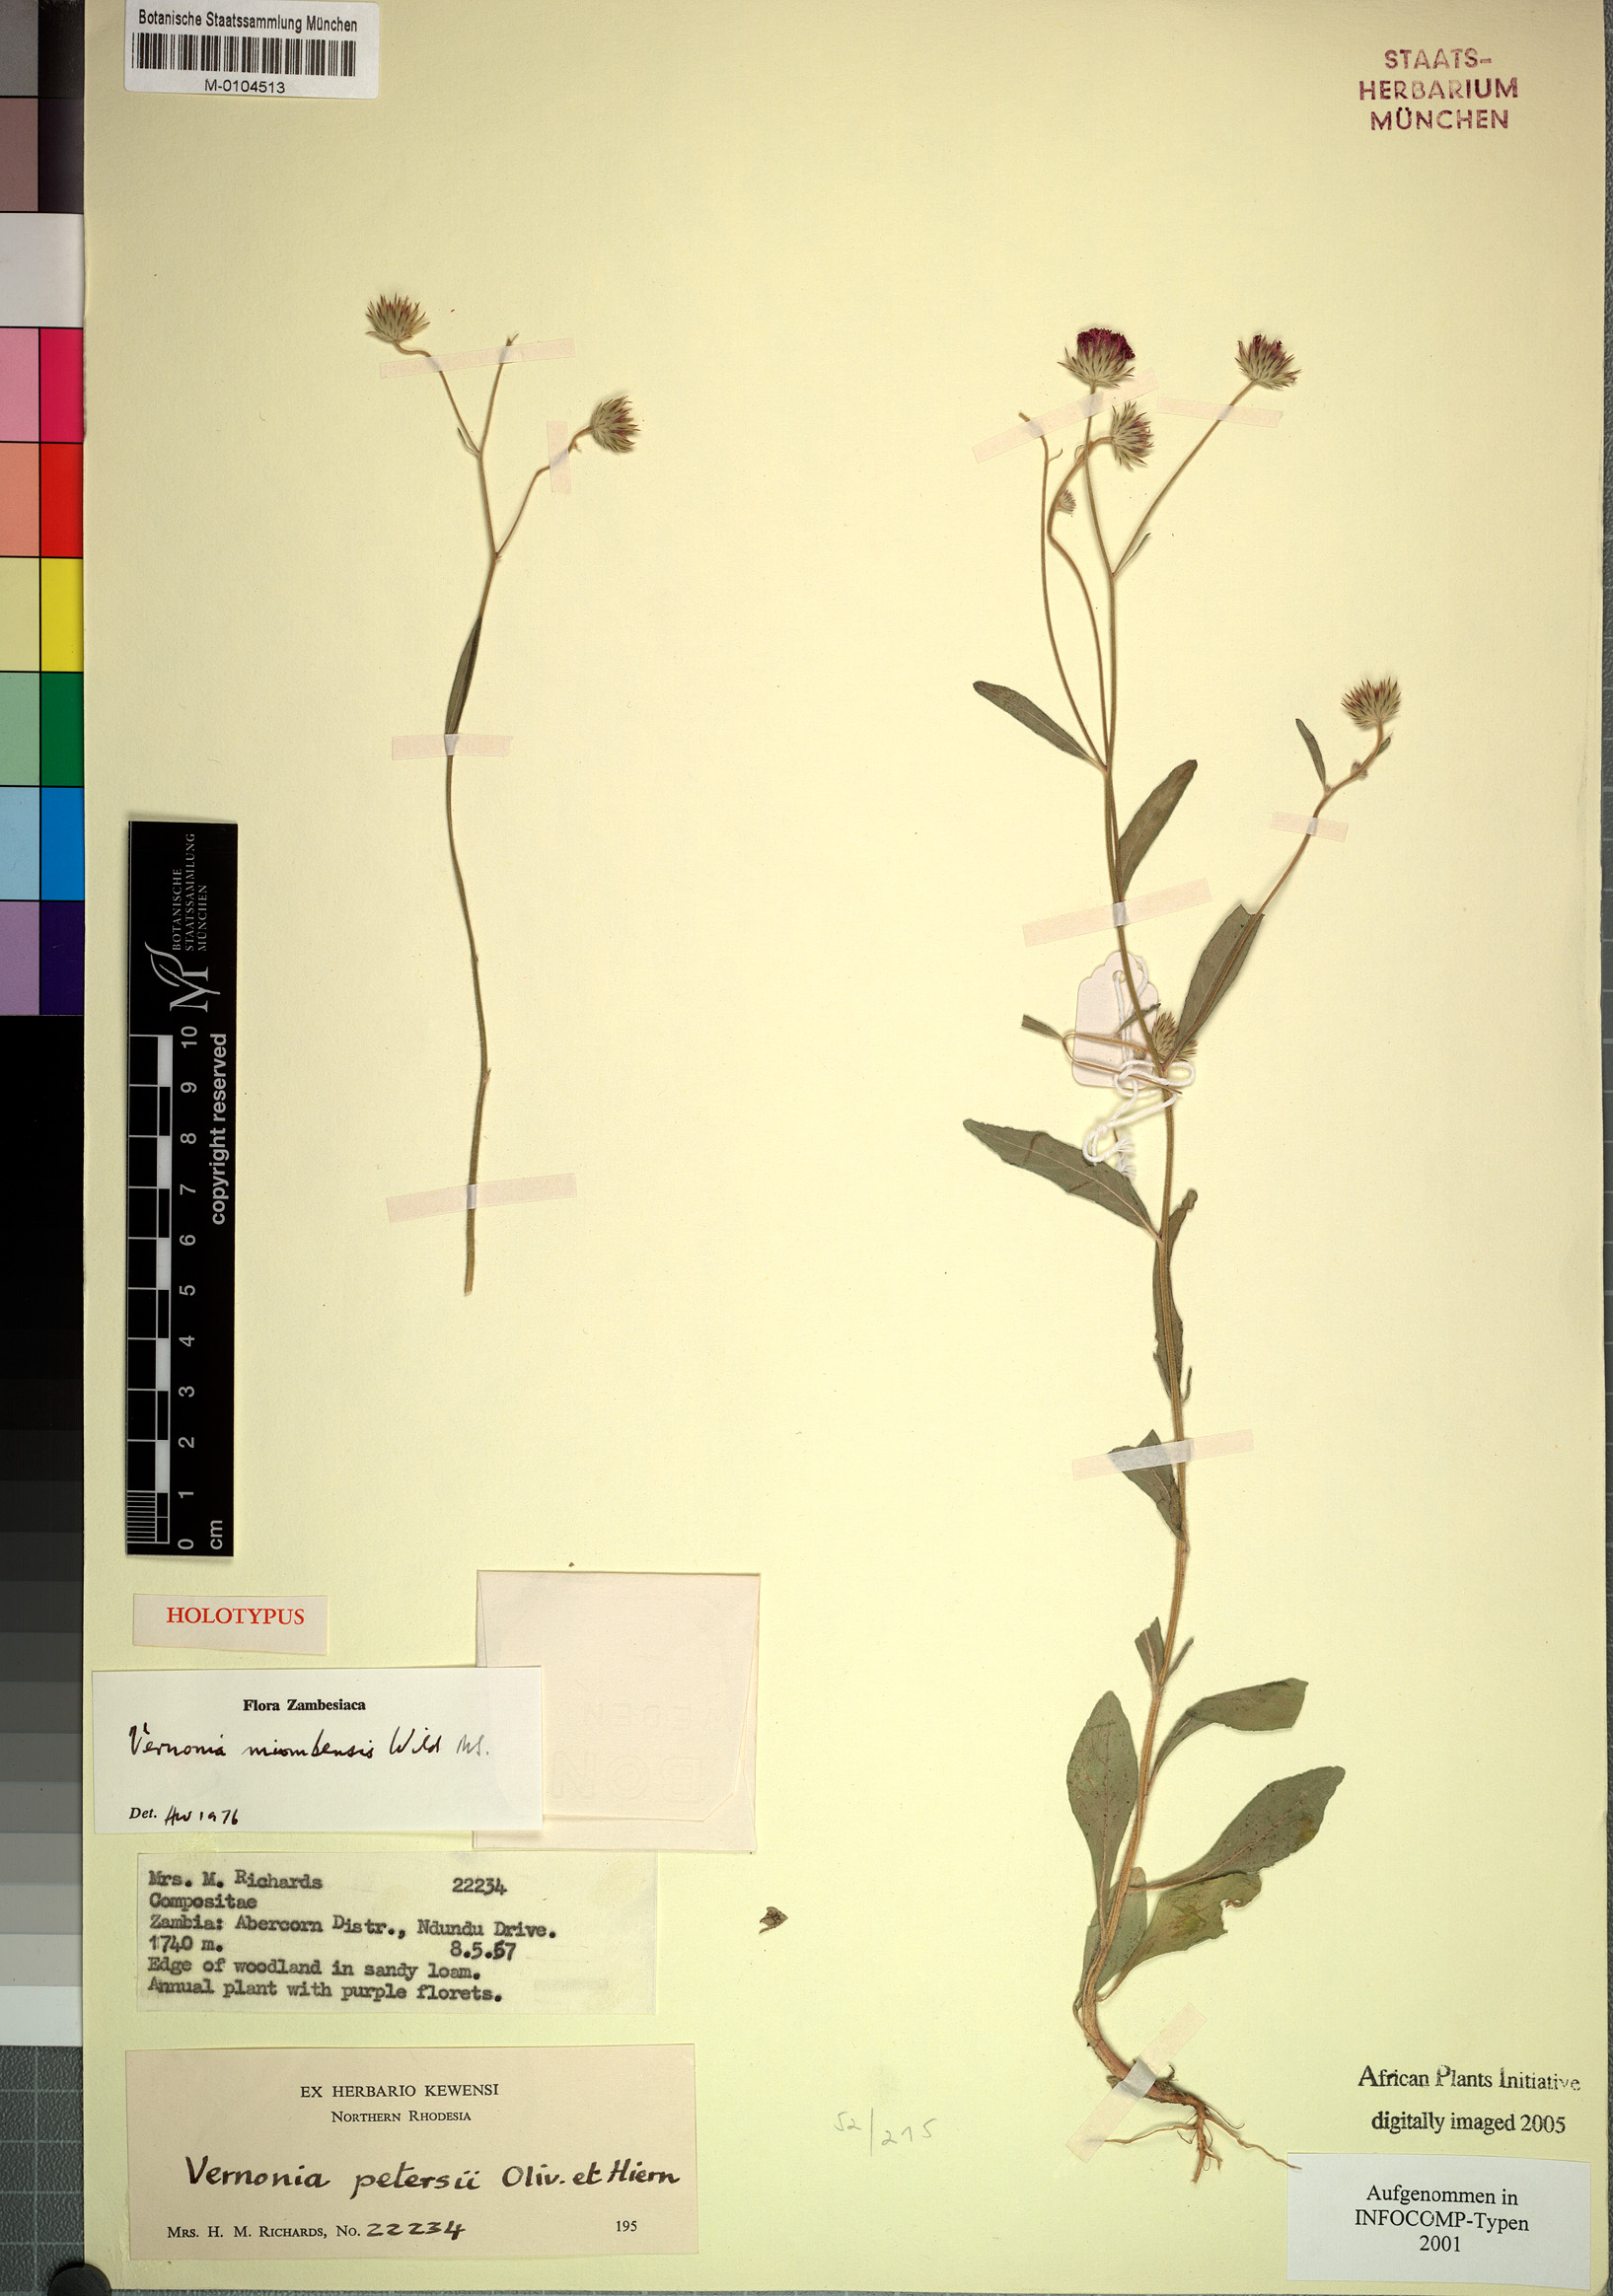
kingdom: Plantae
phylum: Tracheophyta
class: Magnoliopsida
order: Asterales
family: Asteraceae
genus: Vernonia
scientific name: Vernonia miombicola
